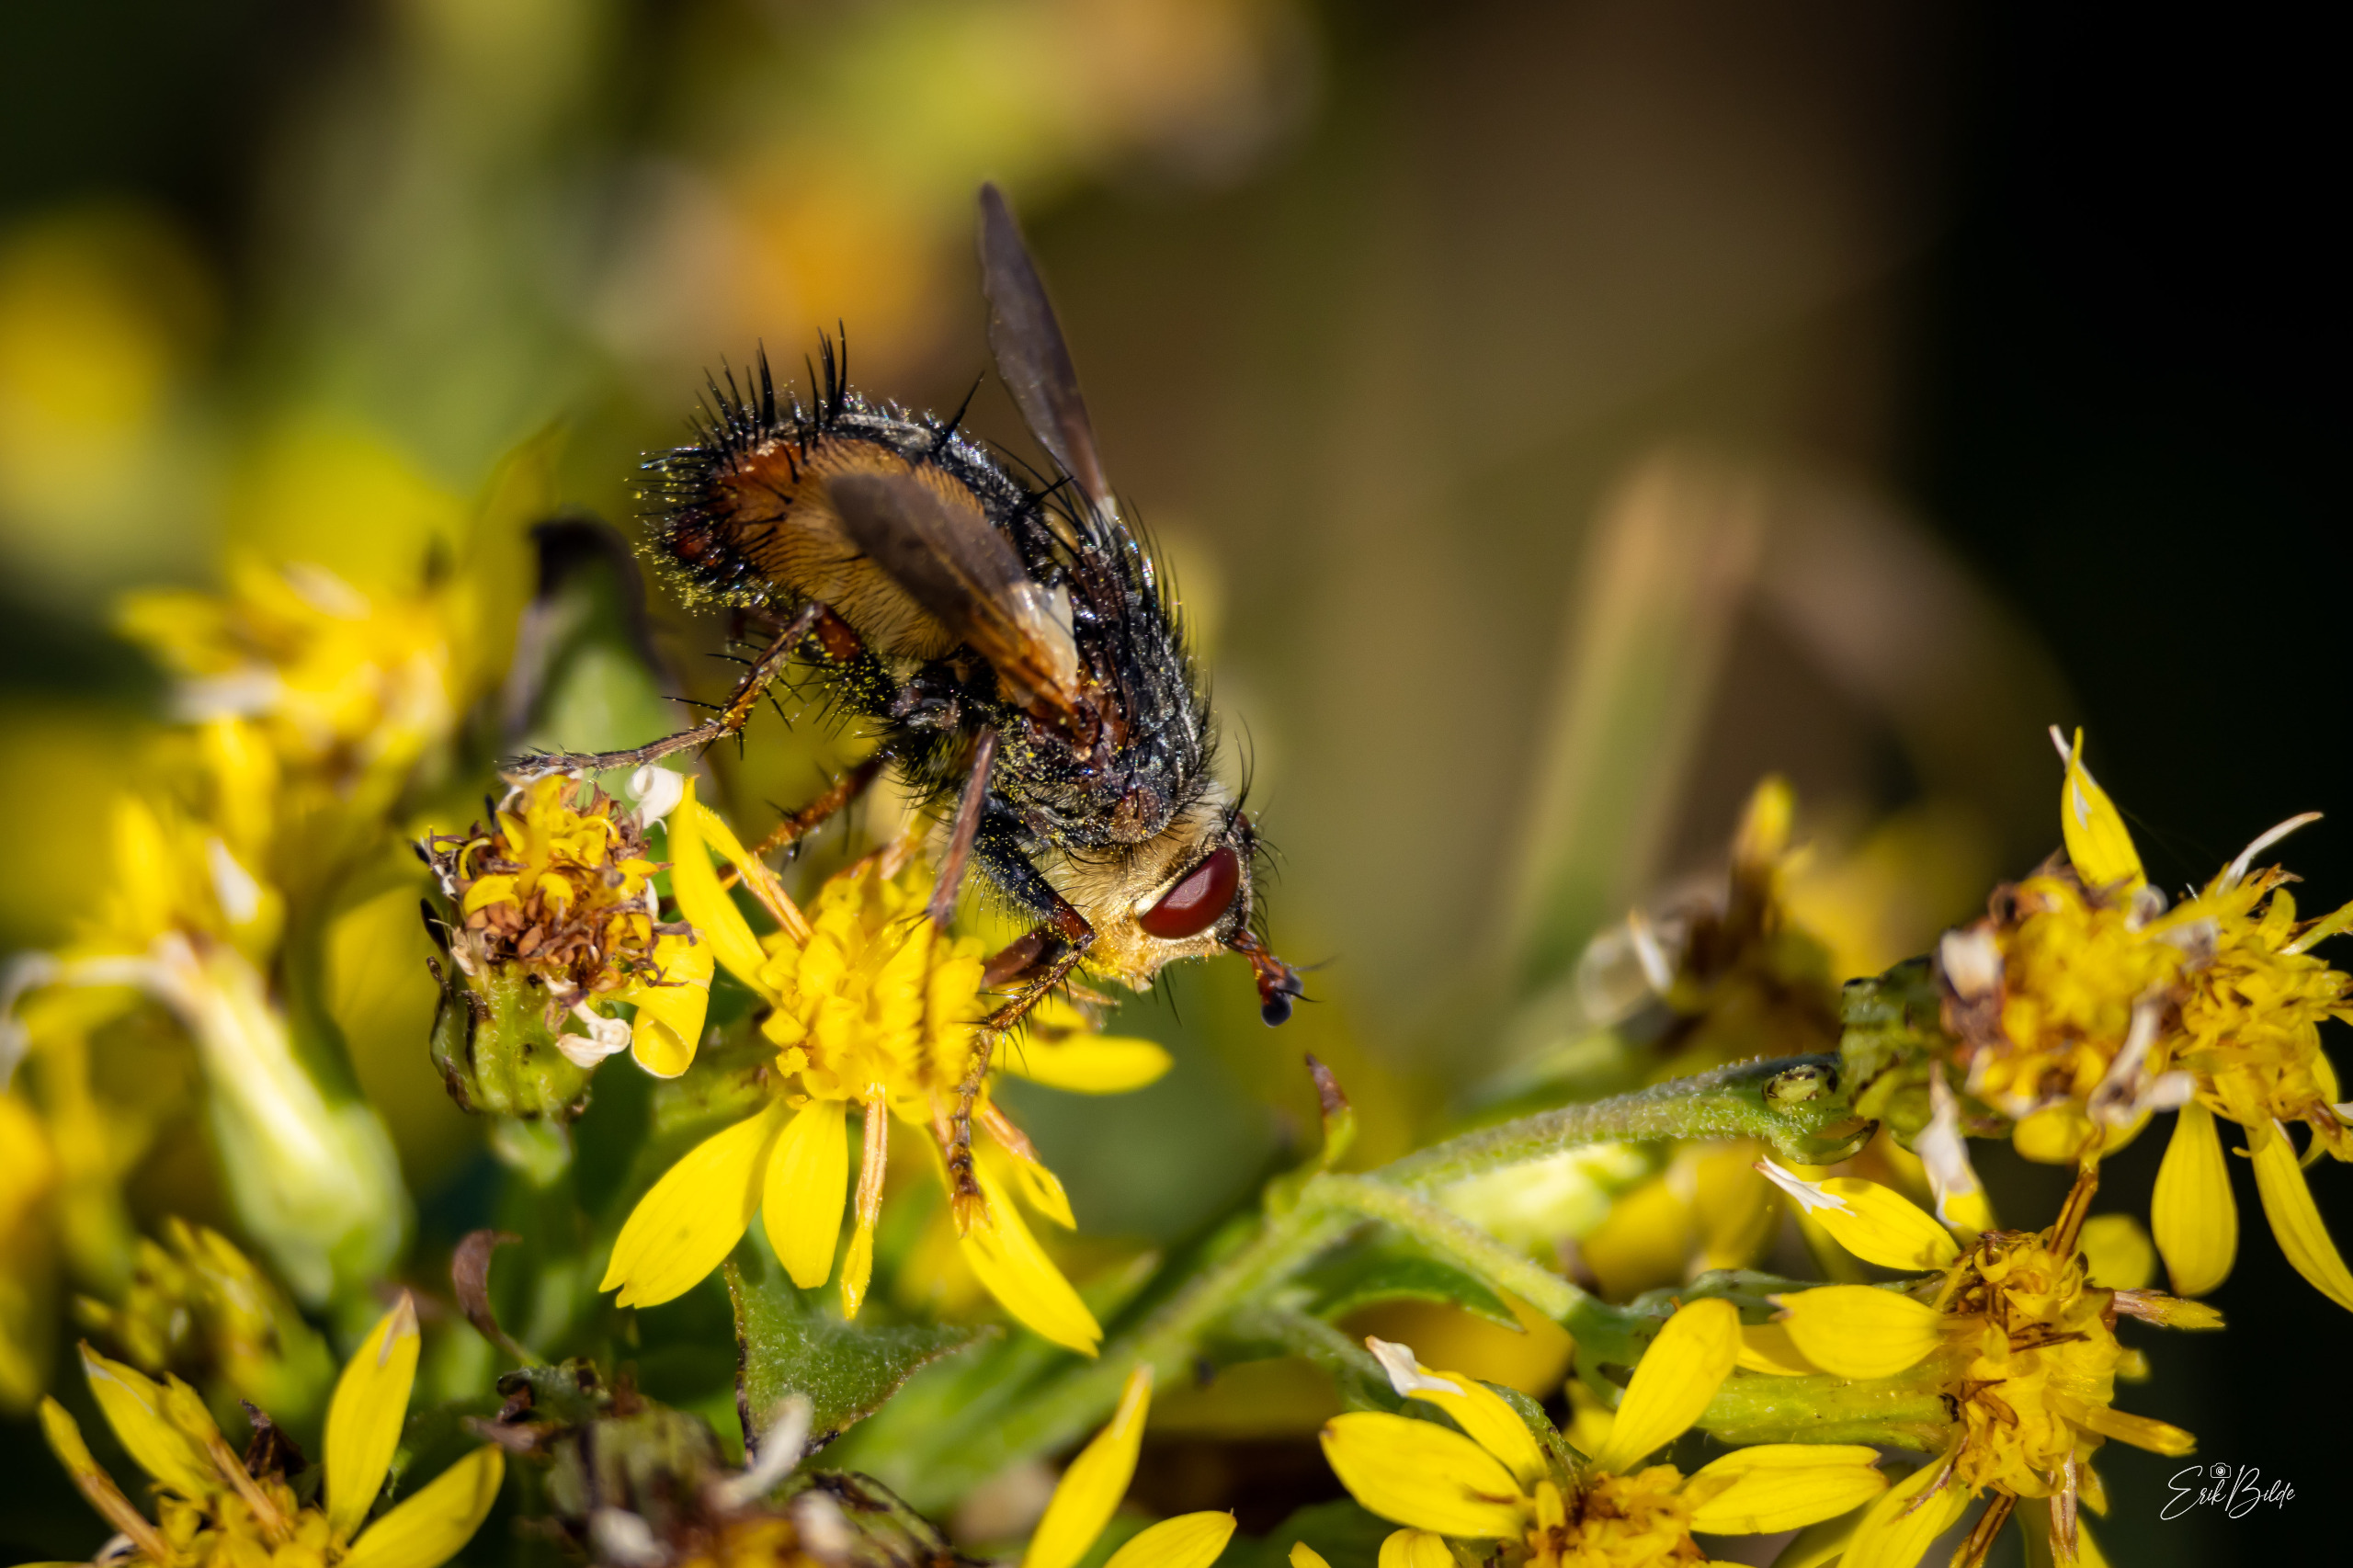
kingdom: Animalia
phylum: Arthropoda
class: Insecta
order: Diptera
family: Tachinidae
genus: Tachina
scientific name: Tachina fera
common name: Mellemfluen oskar
